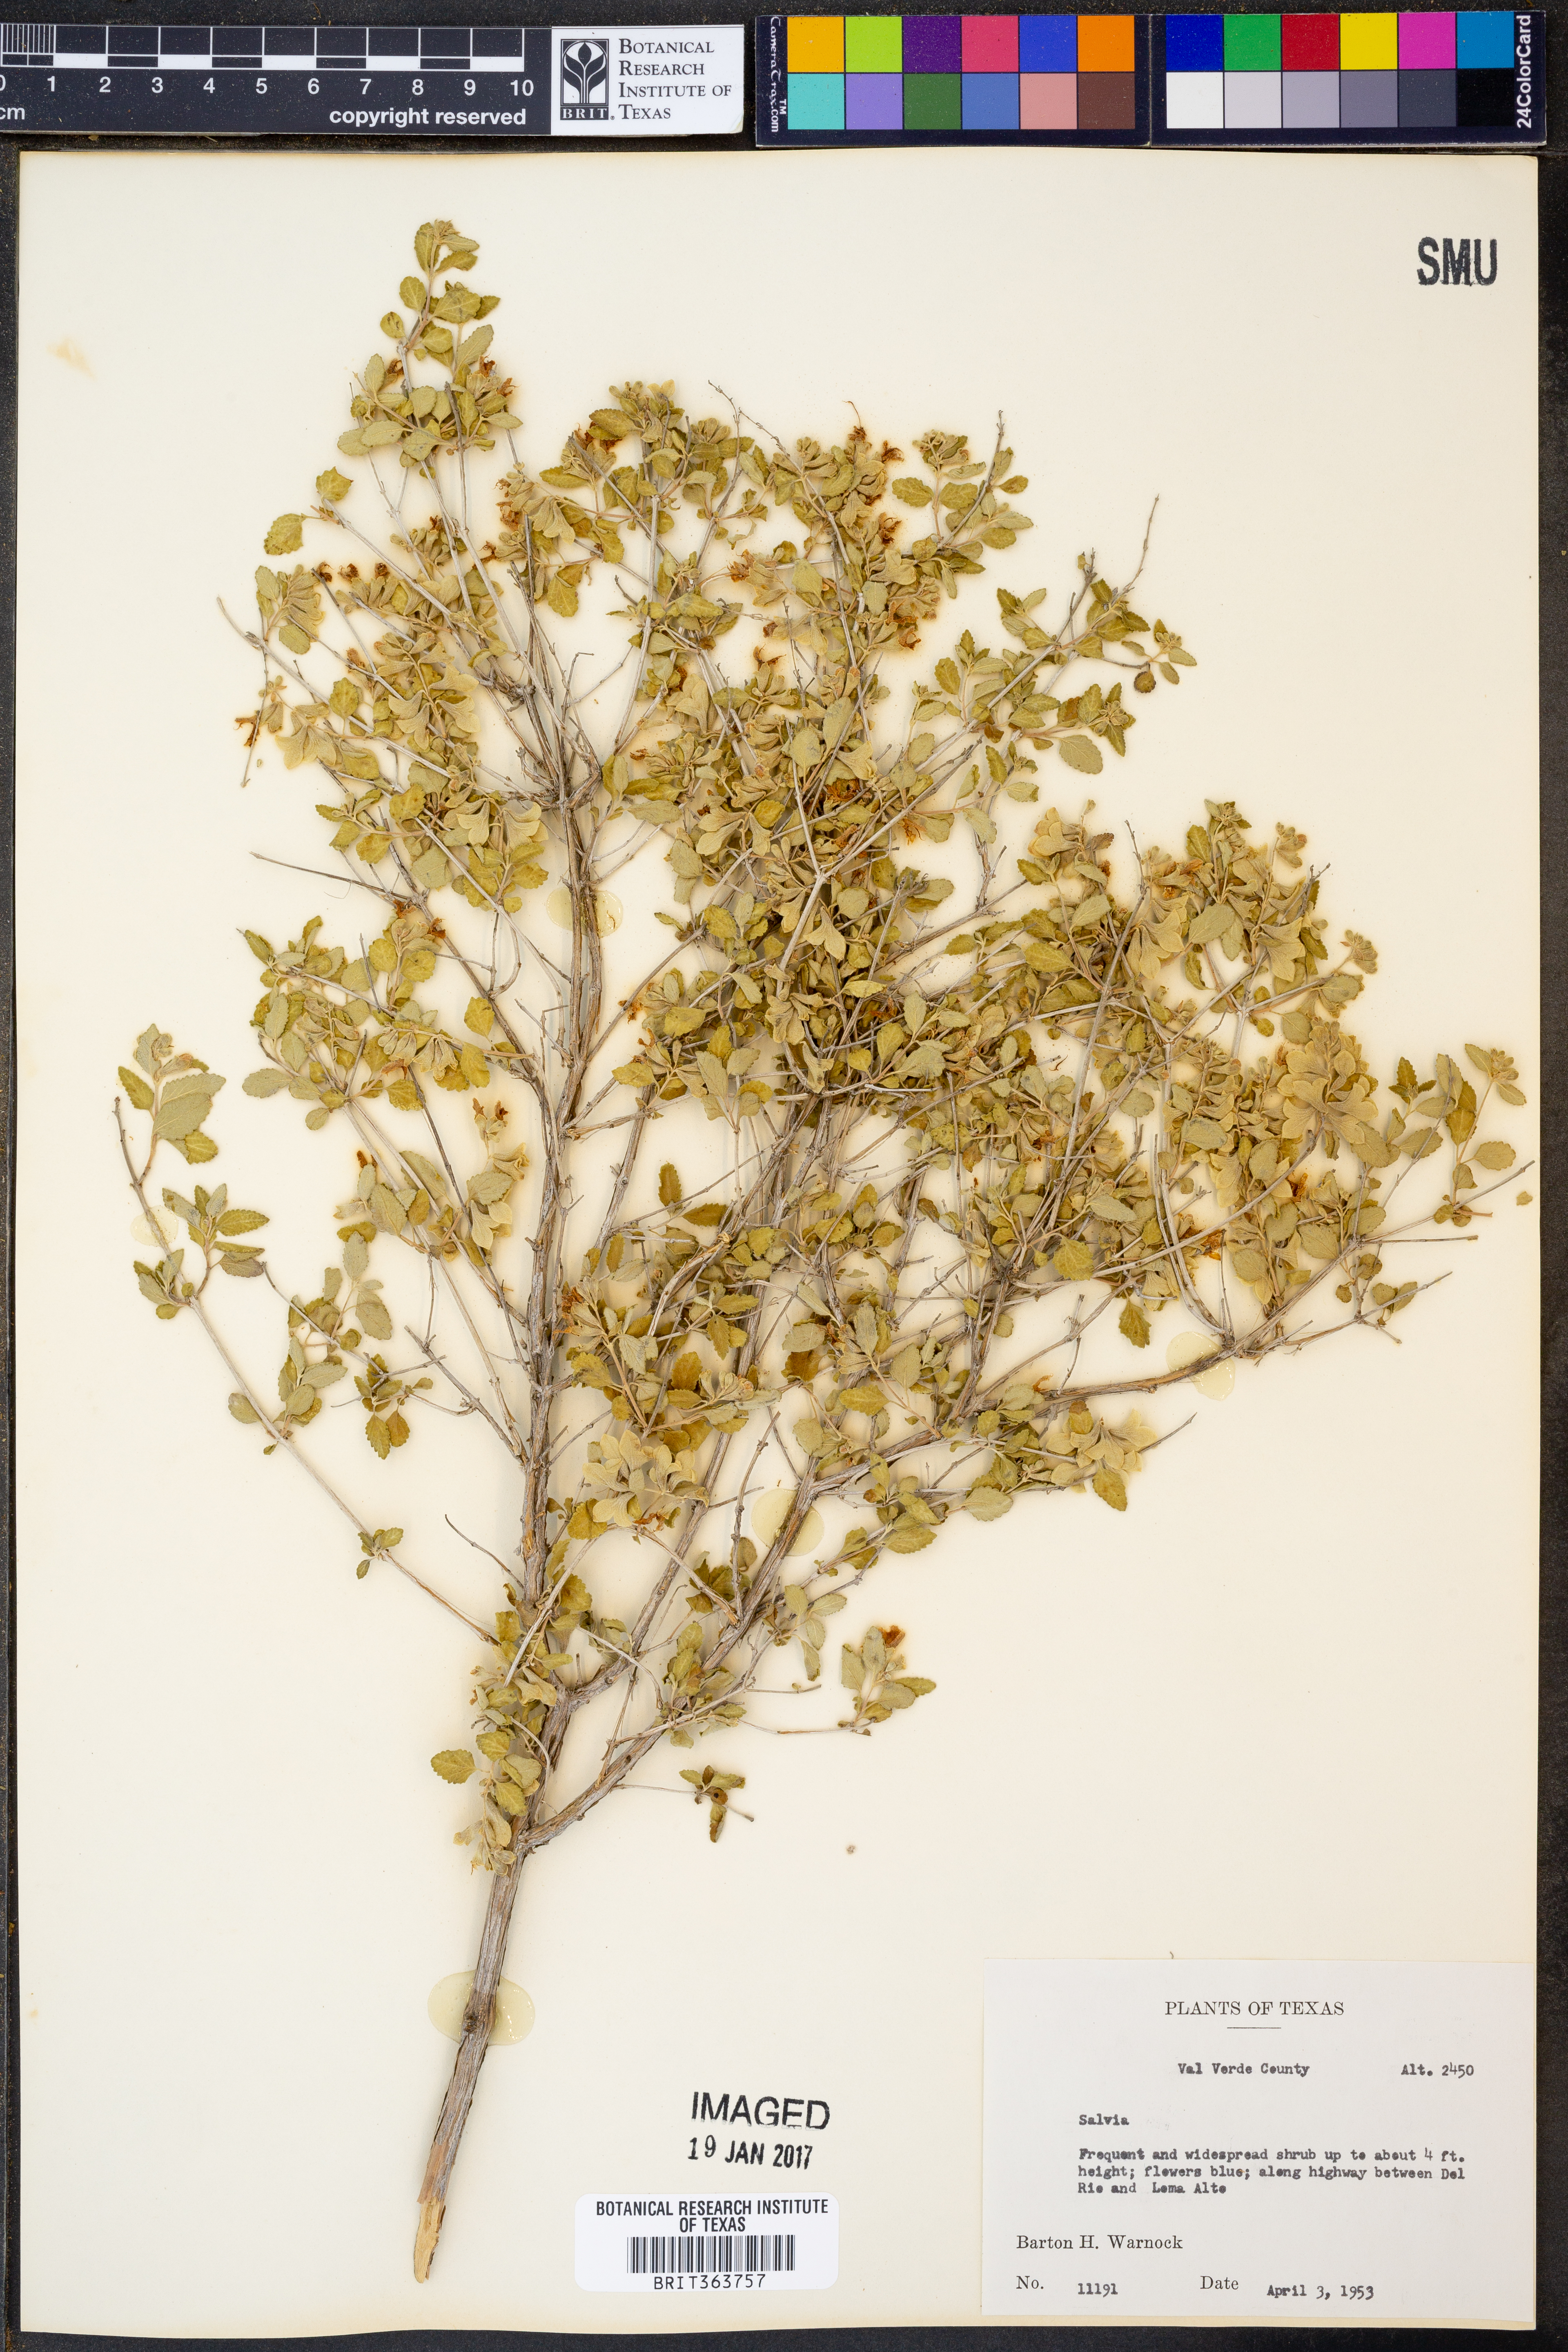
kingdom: Plantae
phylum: Tracheophyta
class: Magnoliopsida
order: Lamiales
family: Lamiaceae
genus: Salvia
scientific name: Salvia
